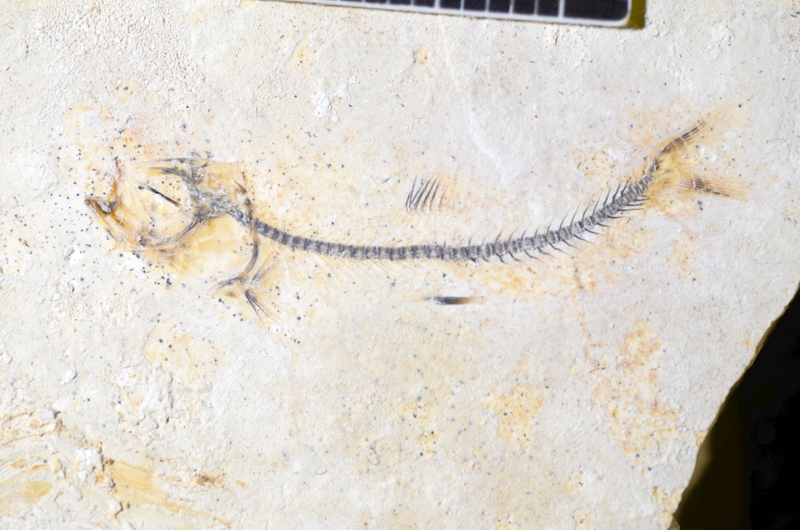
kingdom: Animalia
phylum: Chordata
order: Salmoniformes
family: Orthogonikleithridae
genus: Orthogonikleithrus
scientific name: Orthogonikleithrus
